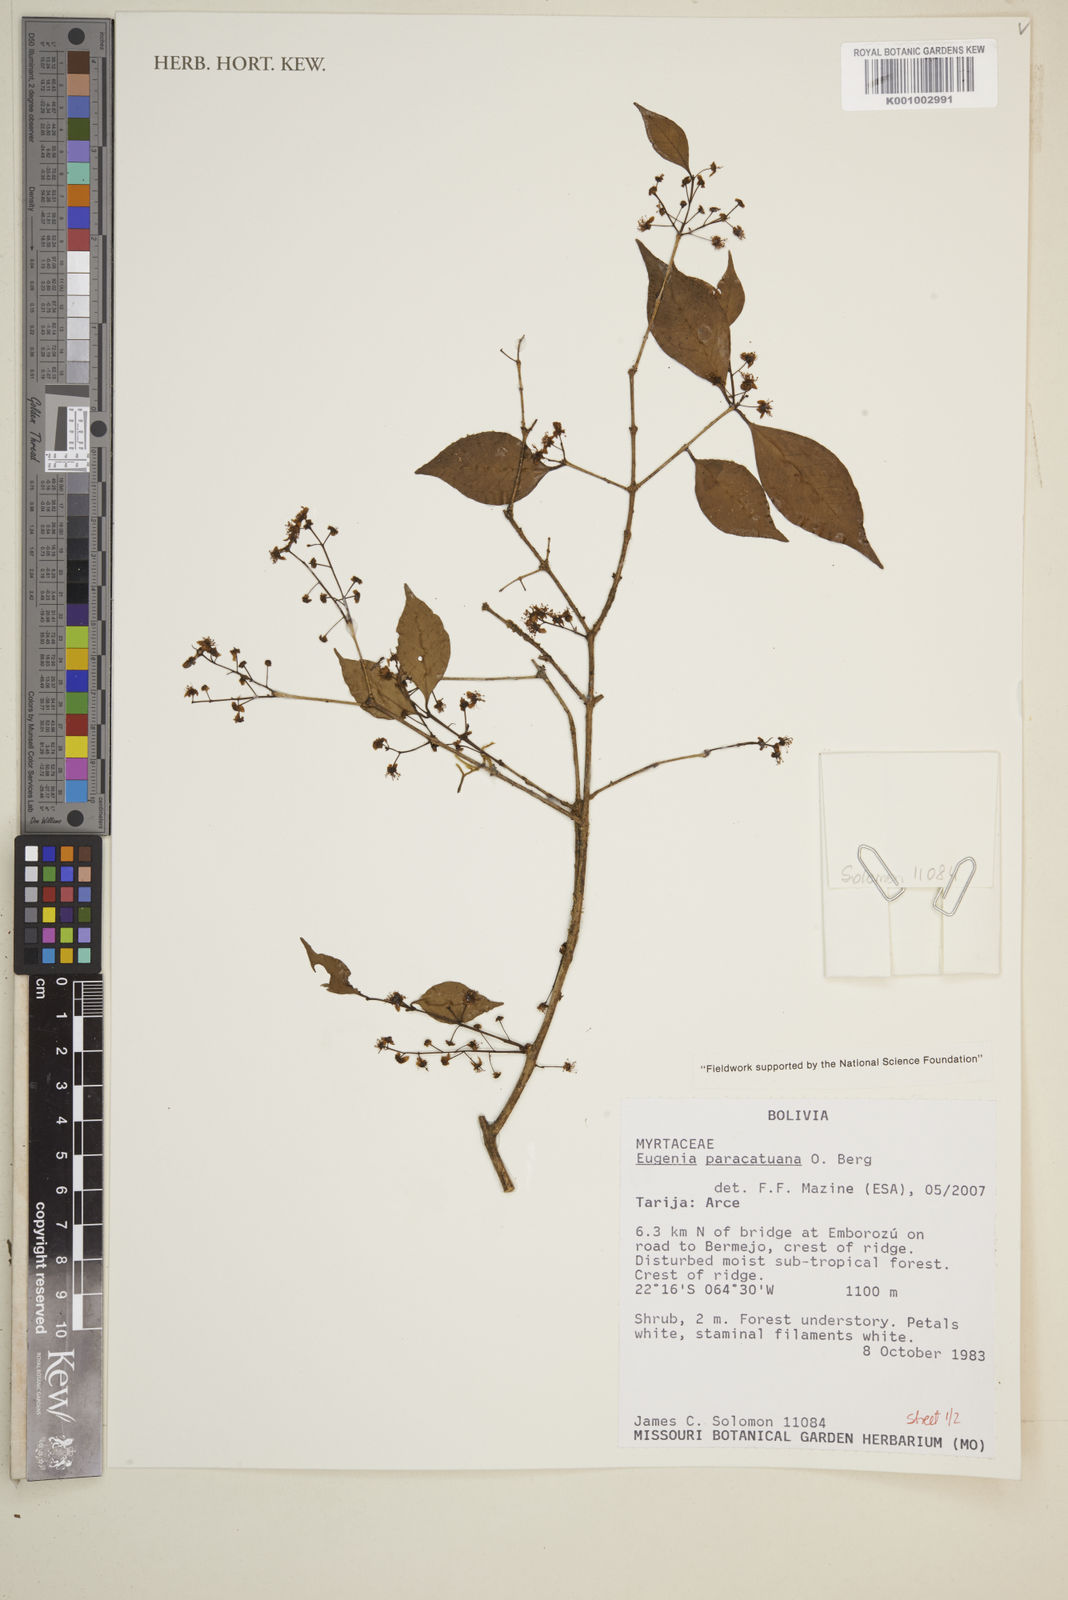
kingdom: Plantae
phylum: Tracheophyta
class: Magnoliopsida
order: Myrtales
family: Myrtaceae
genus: Eugenia
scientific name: Eugenia moraviana
